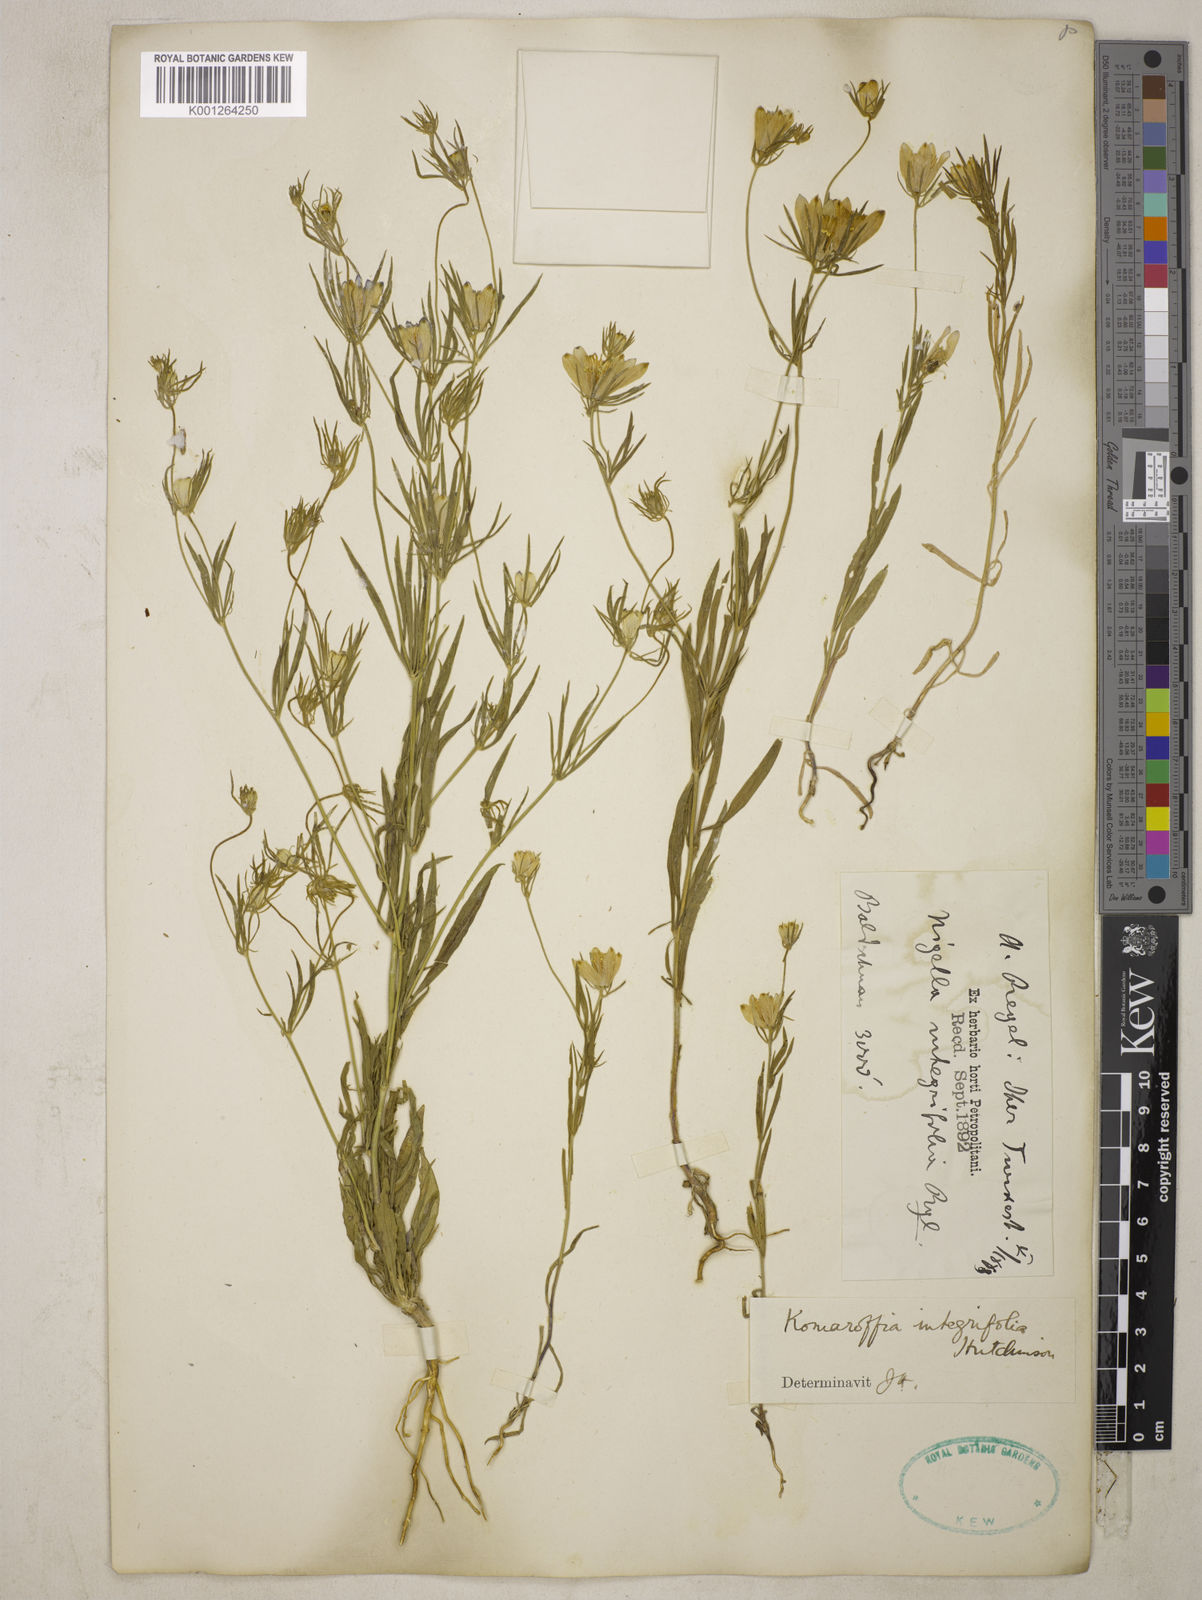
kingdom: Plantae
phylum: Tracheophyta
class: Magnoliopsida
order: Ranunculales
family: Ranunculaceae
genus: Komaroffia
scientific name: Komaroffia integrifolia
